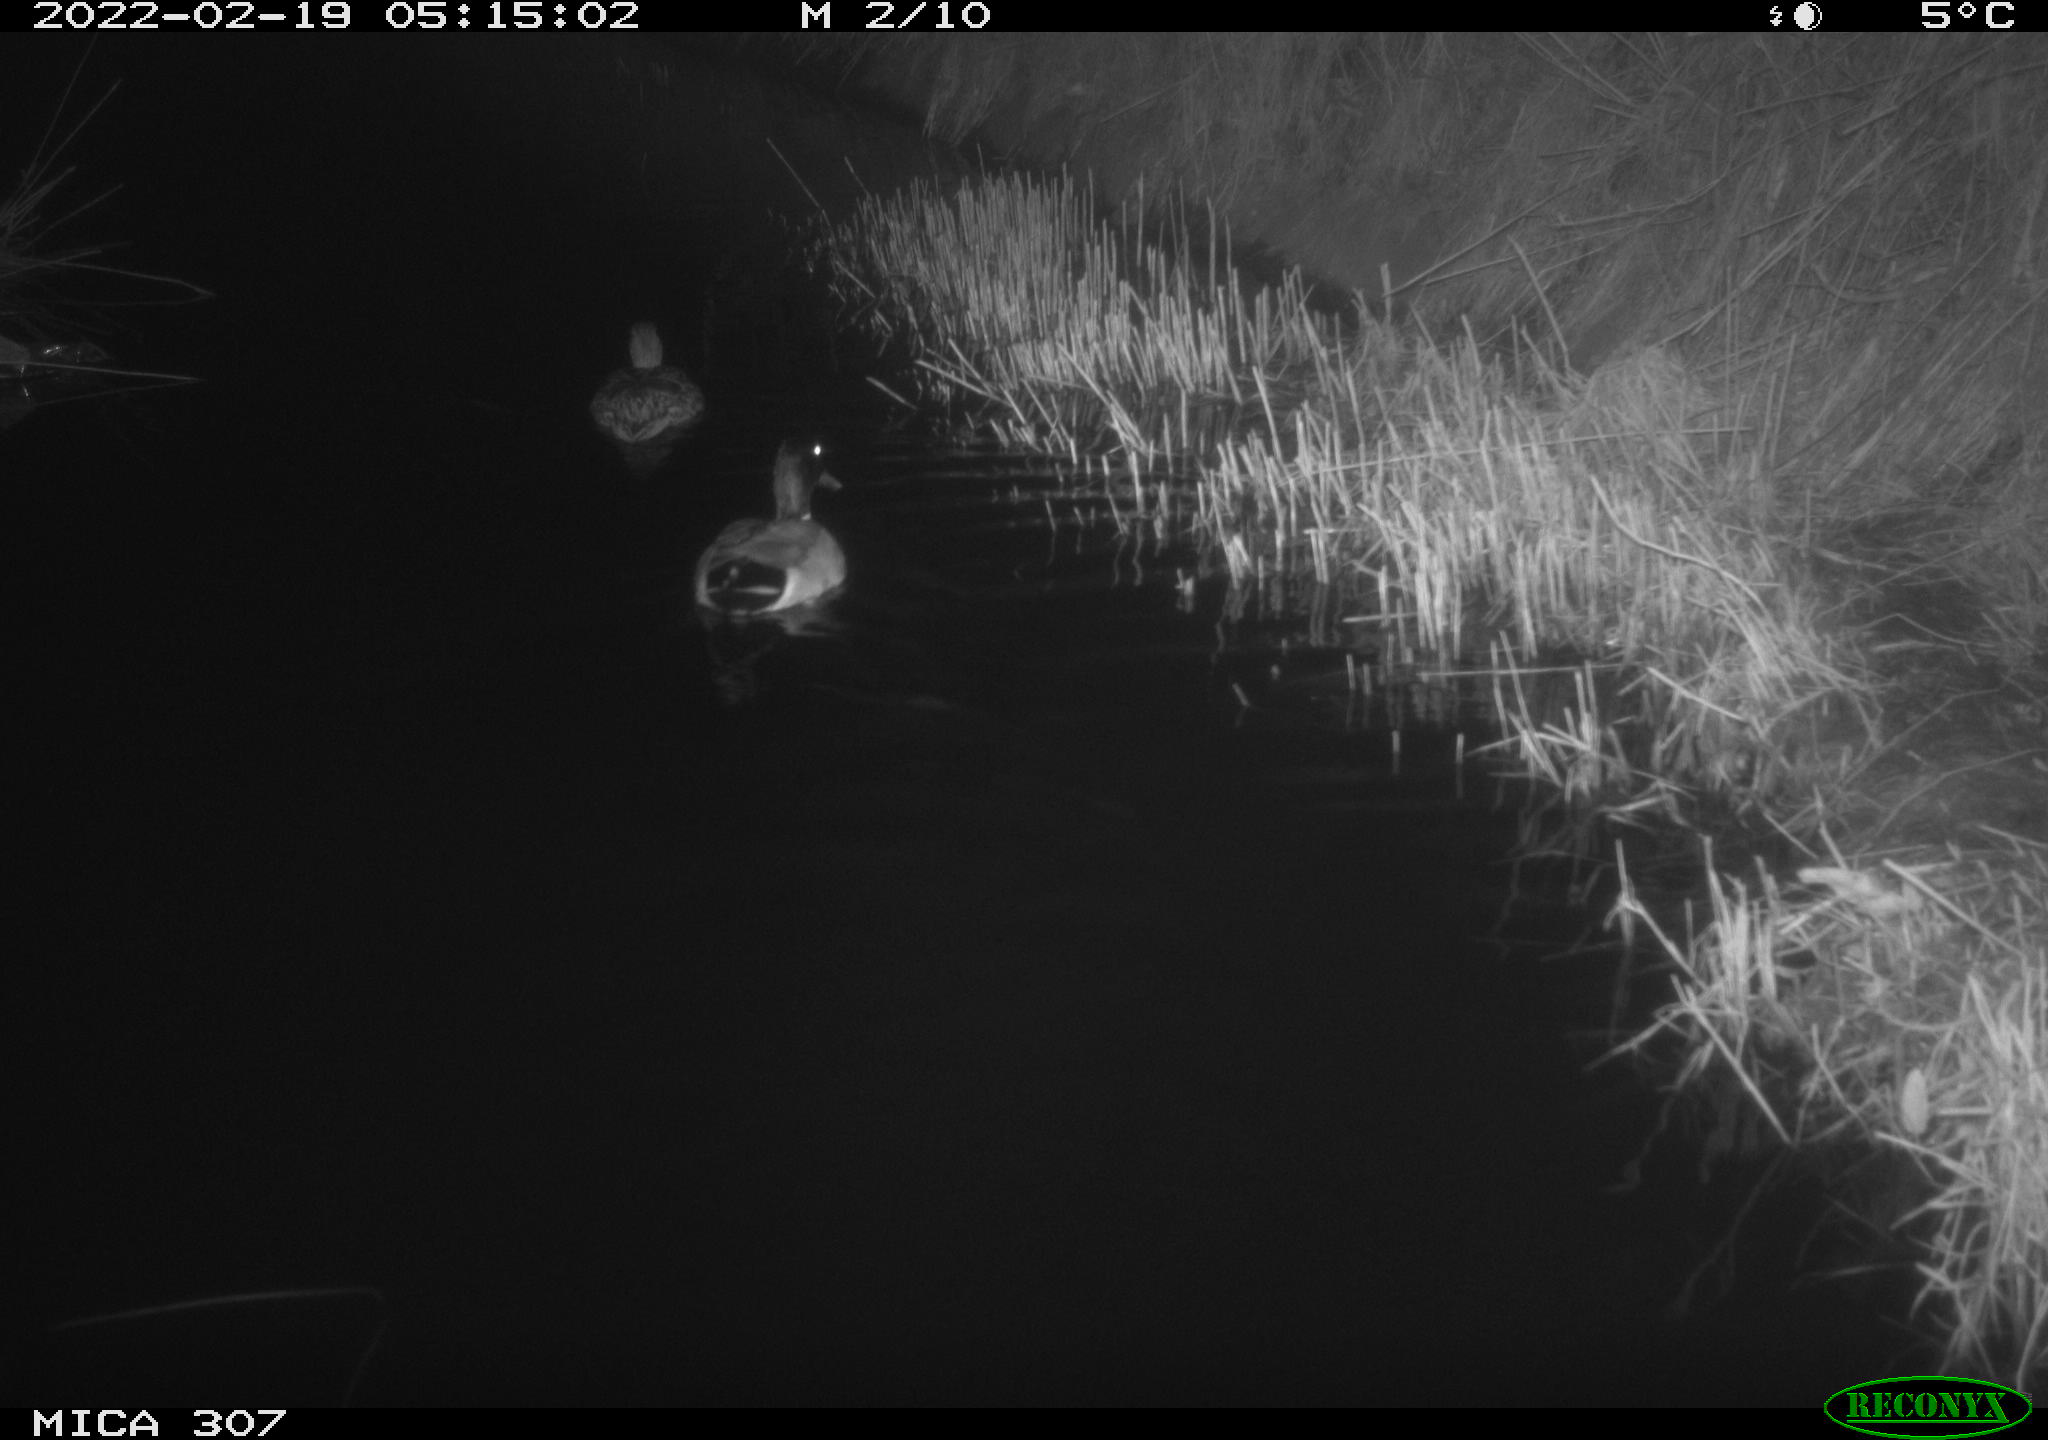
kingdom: Animalia
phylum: Chordata
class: Aves
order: Anseriformes
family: Anatidae
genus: Anas
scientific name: Anas platyrhynchos
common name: Mallard
